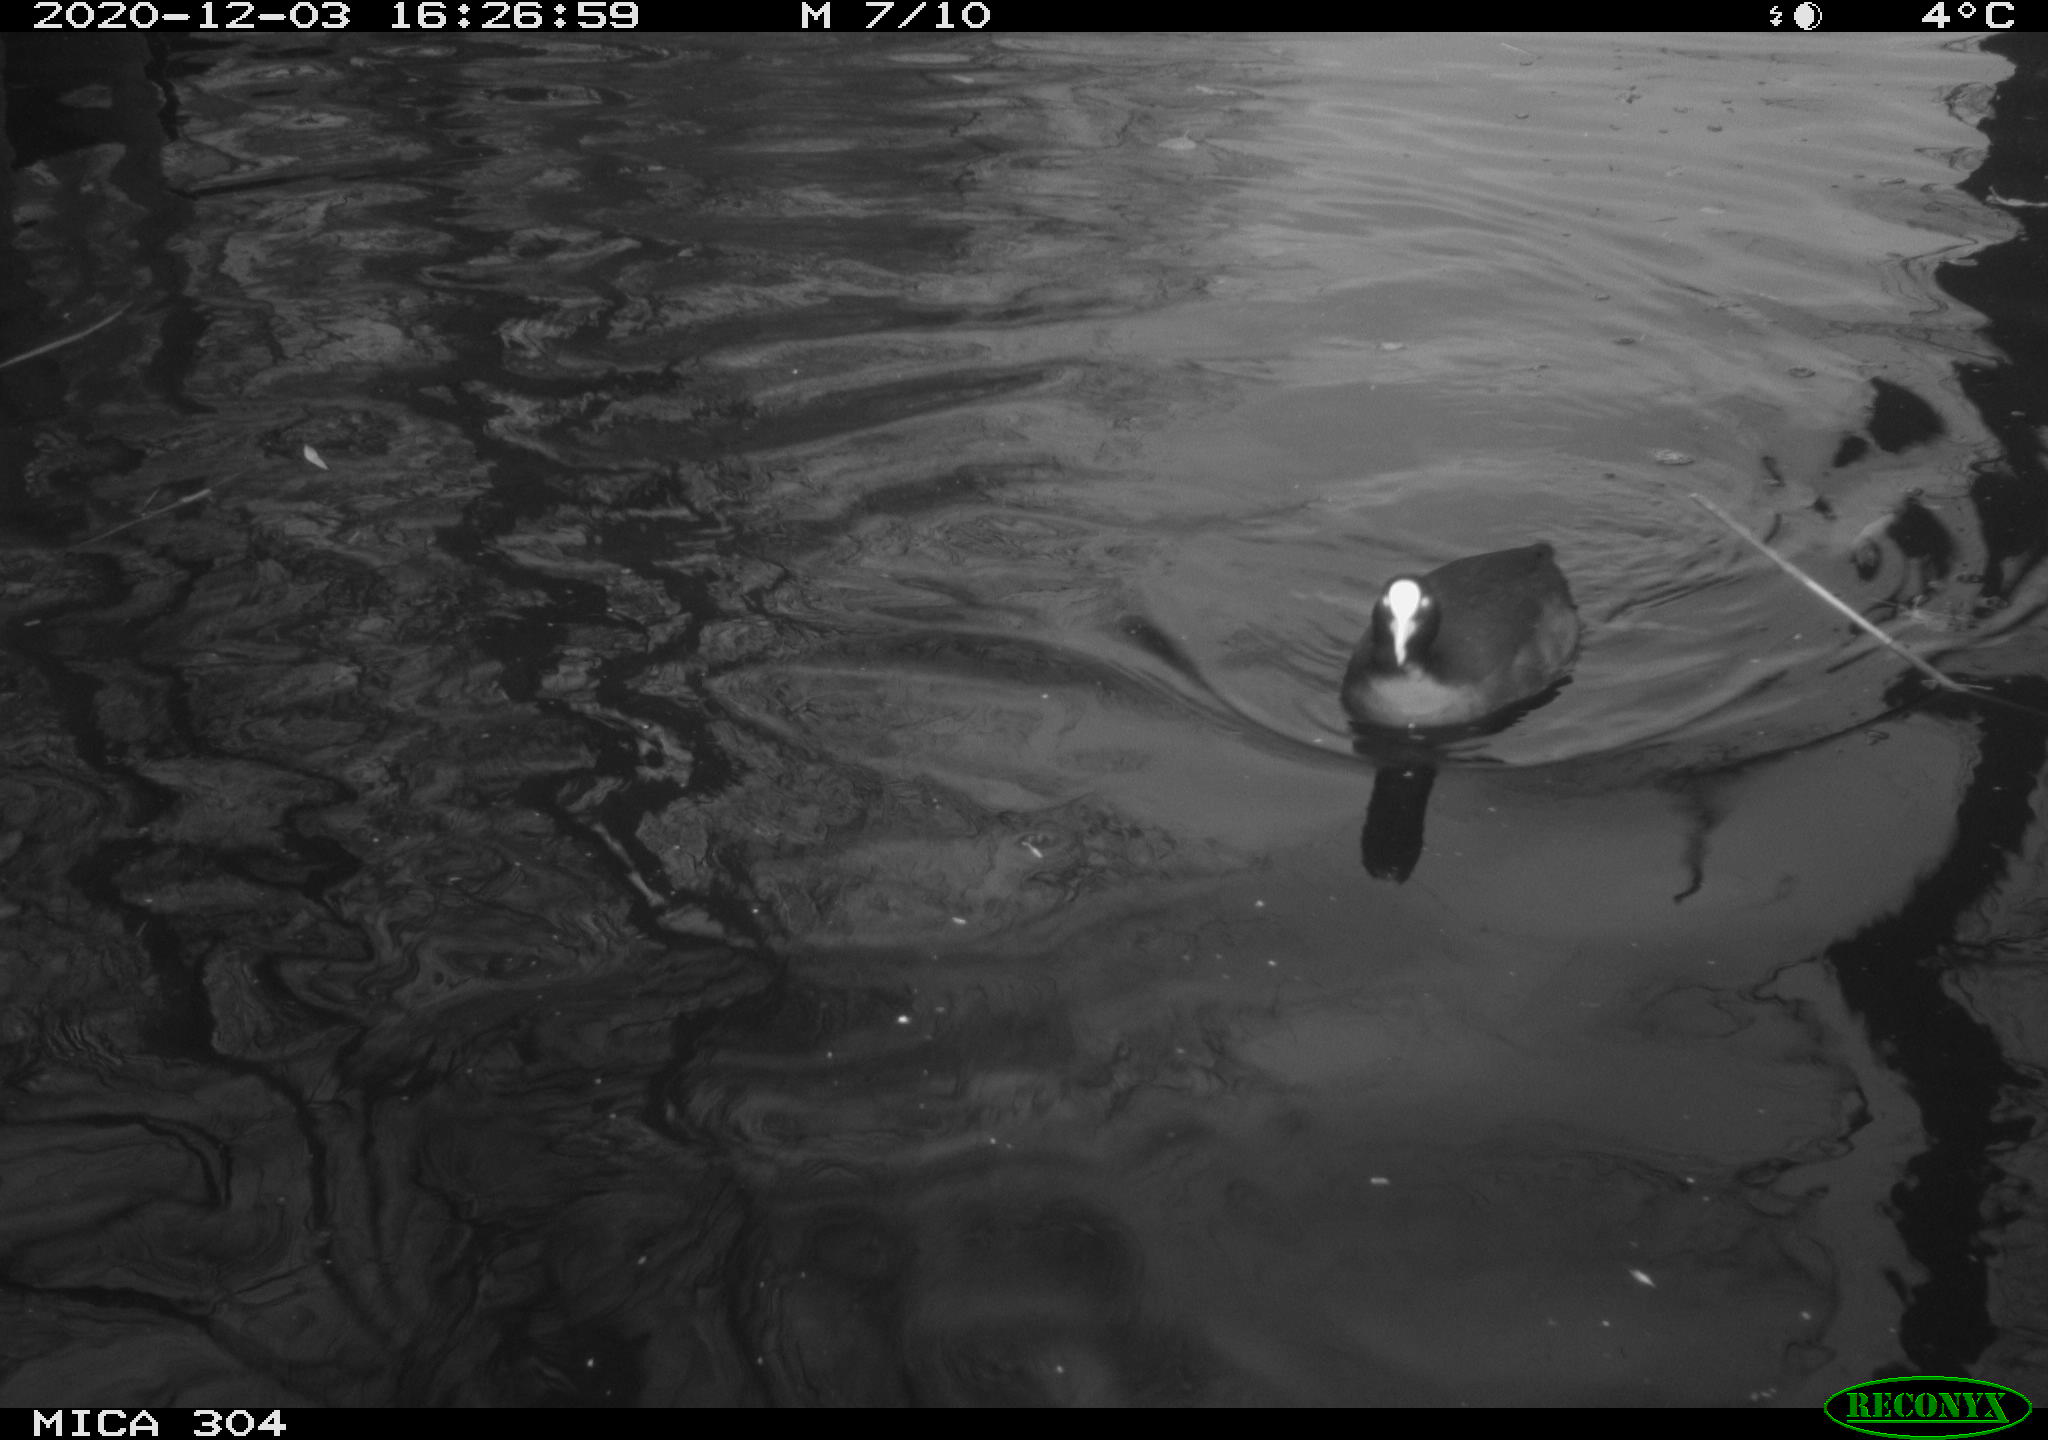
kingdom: Animalia
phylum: Chordata
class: Aves
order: Gruiformes
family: Rallidae
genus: Gallinula
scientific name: Gallinula chloropus
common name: Common moorhen
